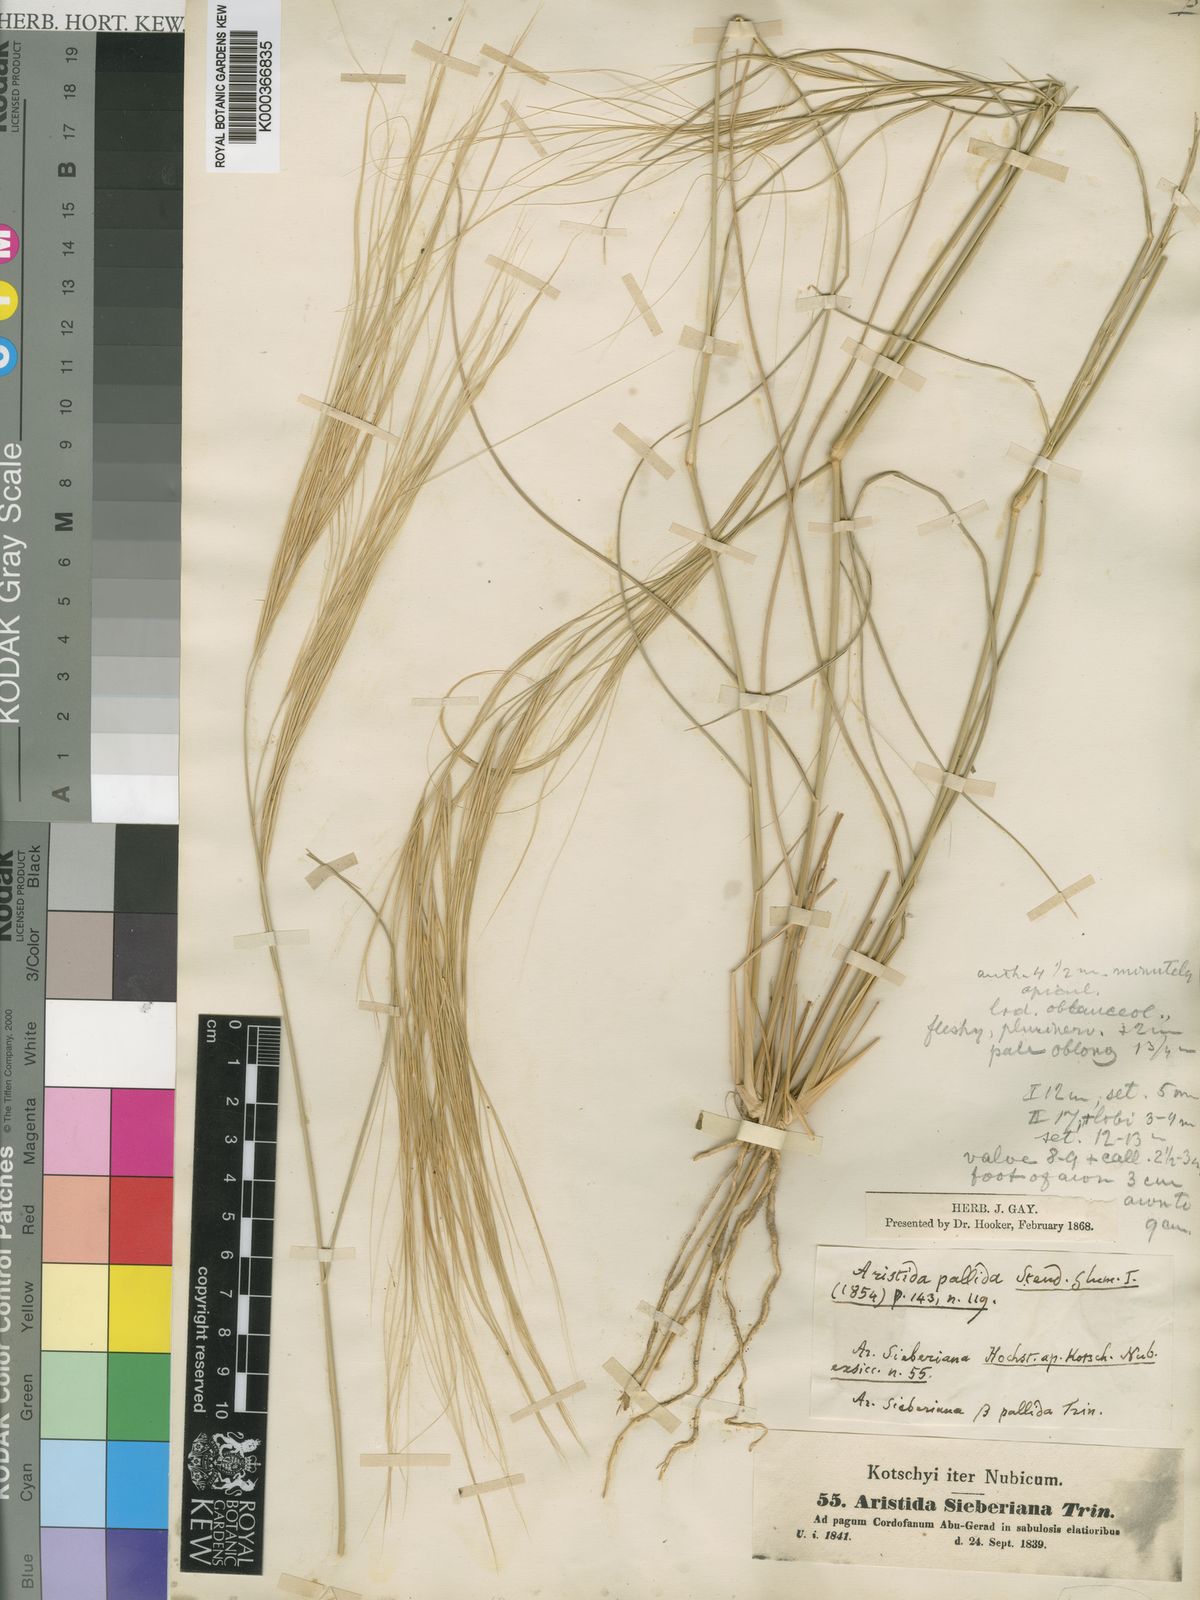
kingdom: Plantae
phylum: Tracheophyta
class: Liliopsida
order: Poales
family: Poaceae
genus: Aristida
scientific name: Aristida sieberiana
